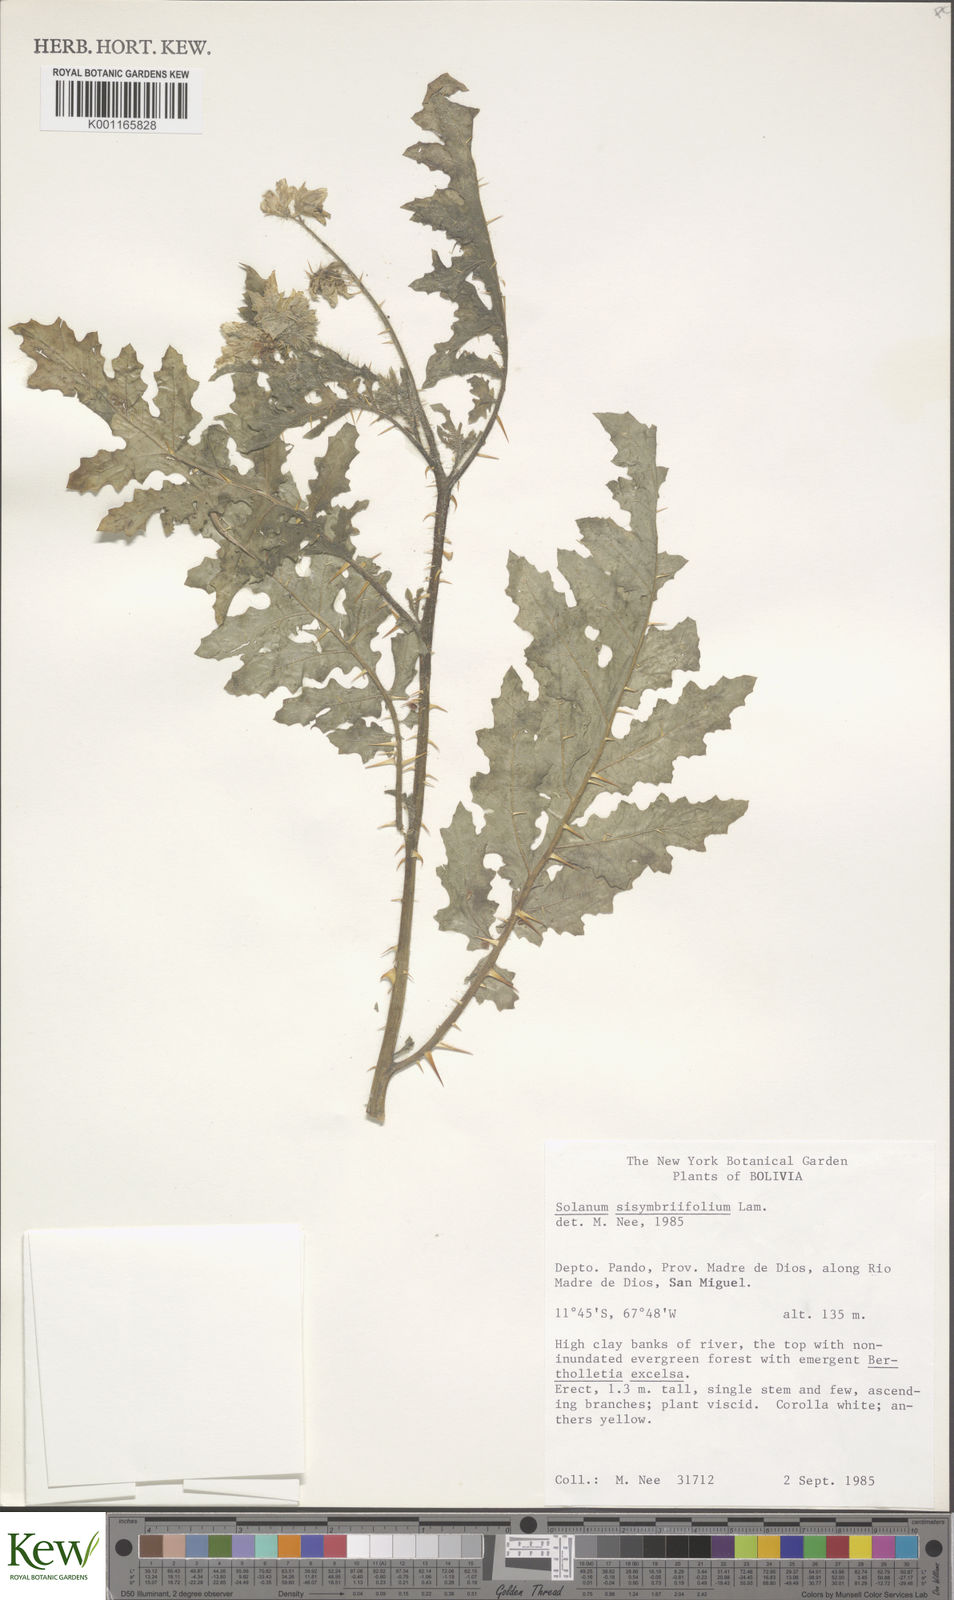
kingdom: Plantae
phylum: Tracheophyta
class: Magnoliopsida
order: Solanales
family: Solanaceae
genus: Solanum
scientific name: Solanum sisymbriifolium
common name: Red buffalo-bur
